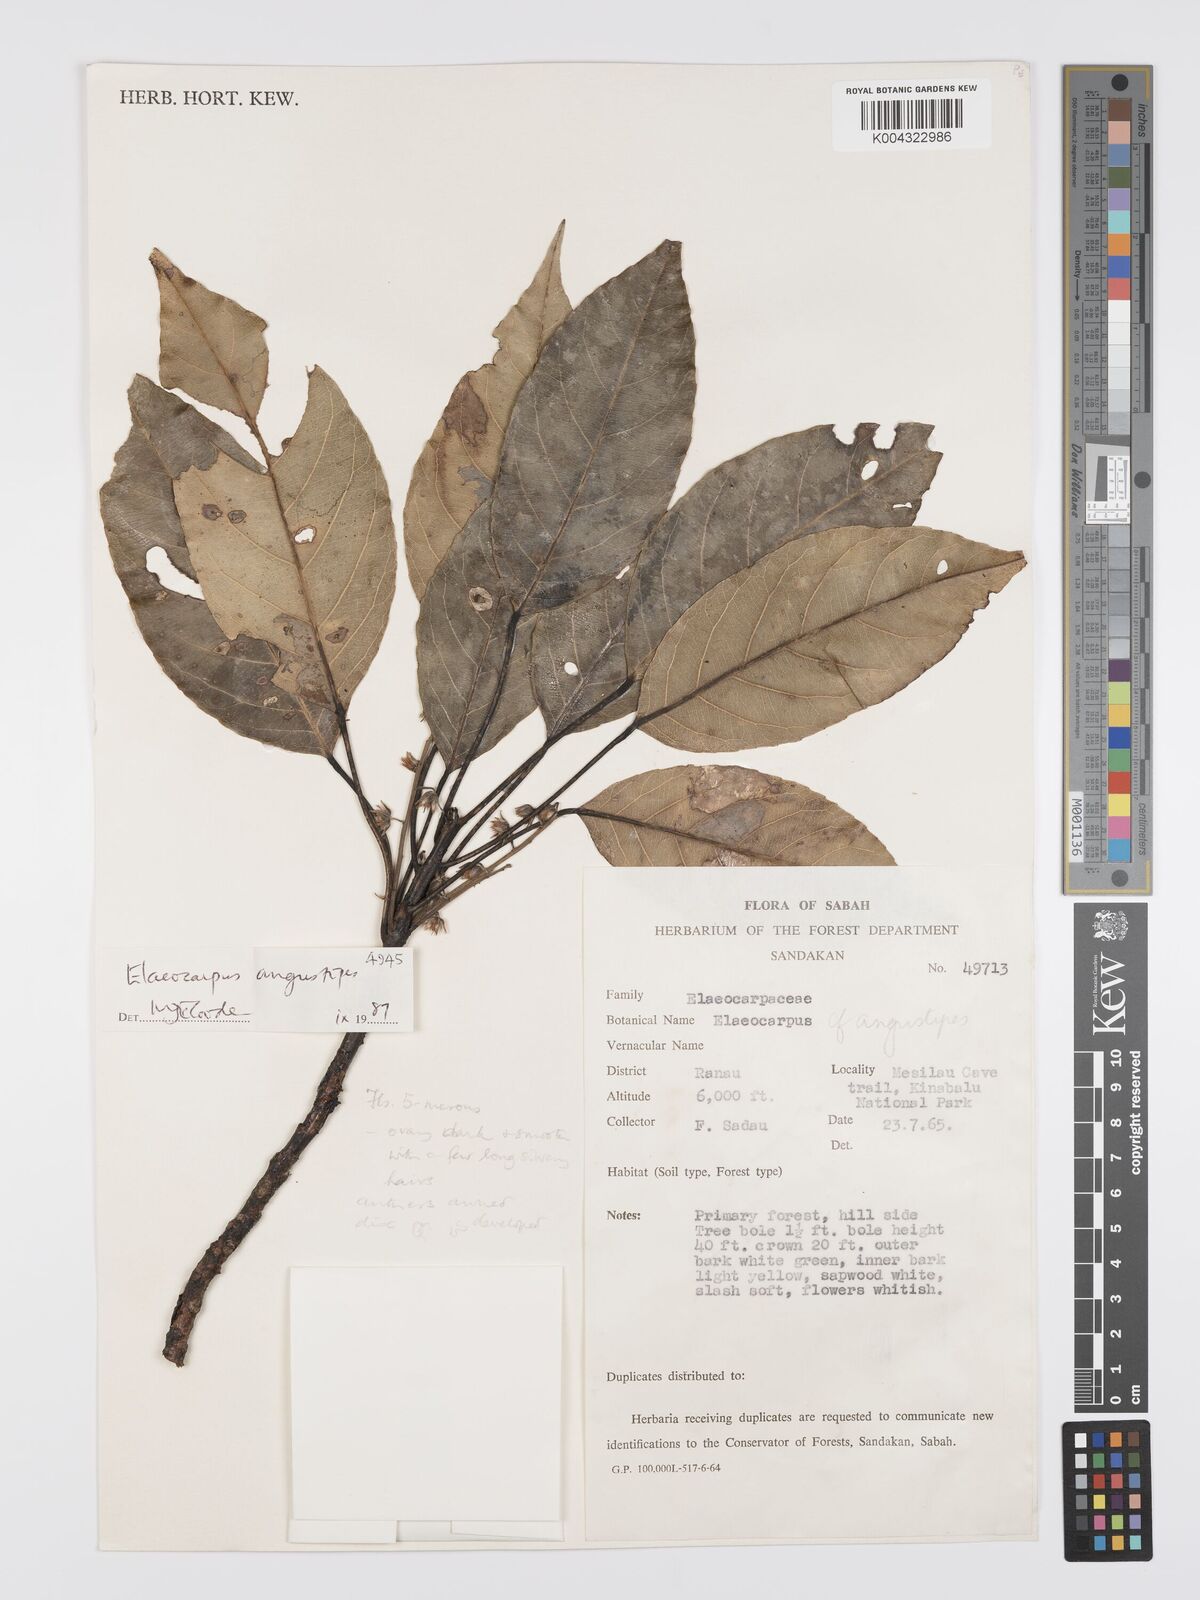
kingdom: Plantae
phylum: Tracheophyta
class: Magnoliopsida
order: Oxalidales
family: Elaeocarpaceae
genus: Elaeocarpus
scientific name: Elaeocarpus angustipes
